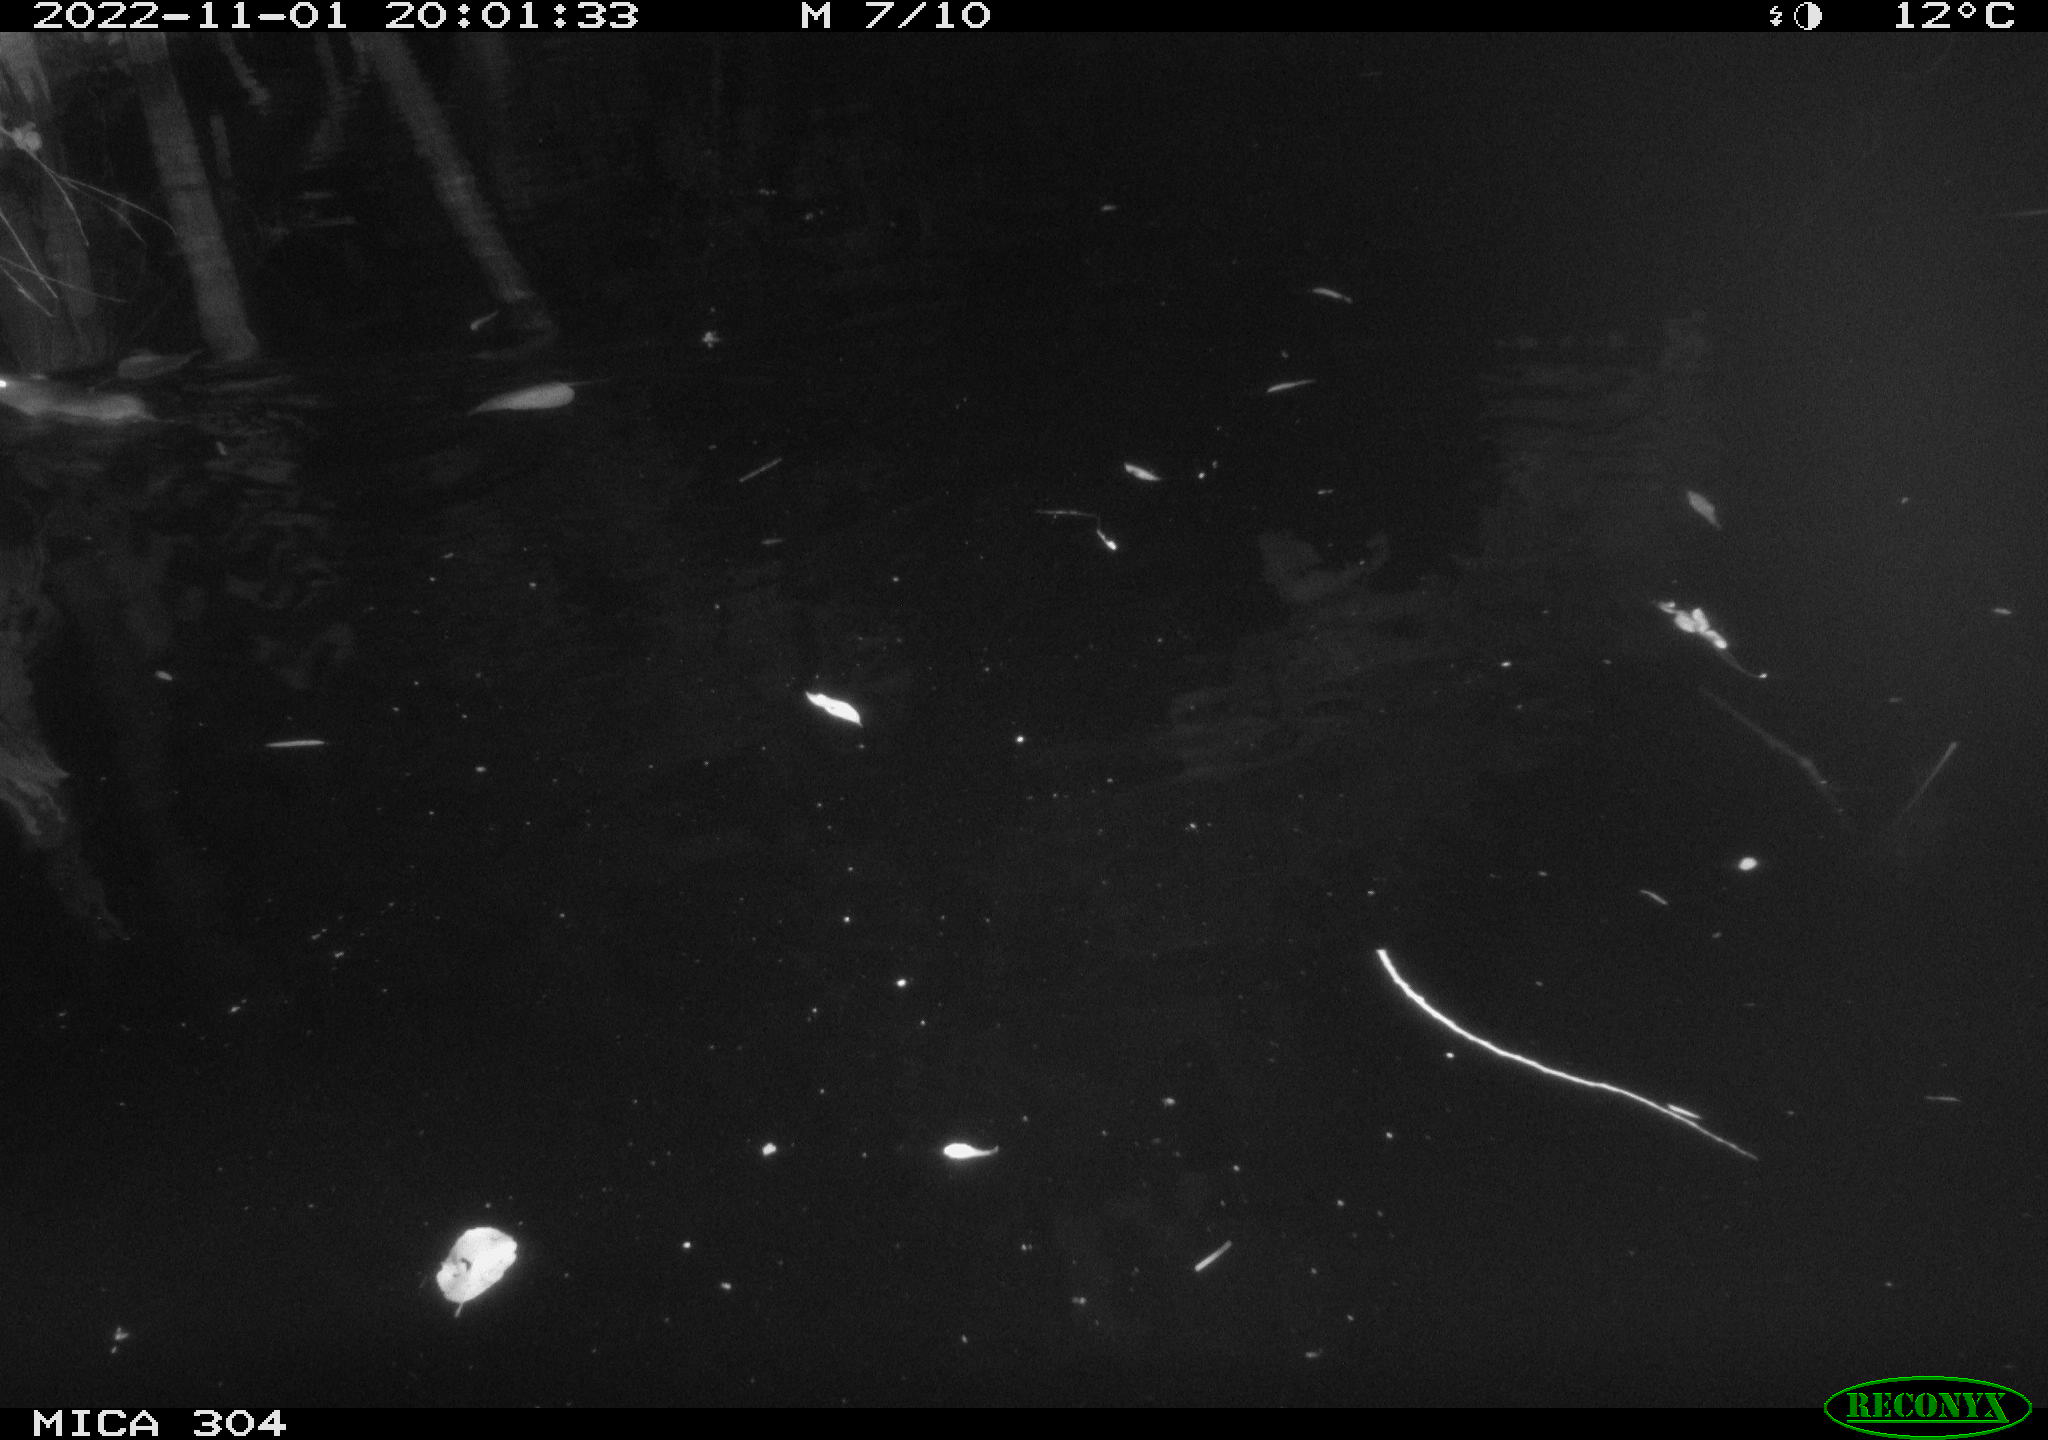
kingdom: Animalia
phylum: Chordata
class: Mammalia
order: Rodentia
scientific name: Rodentia
